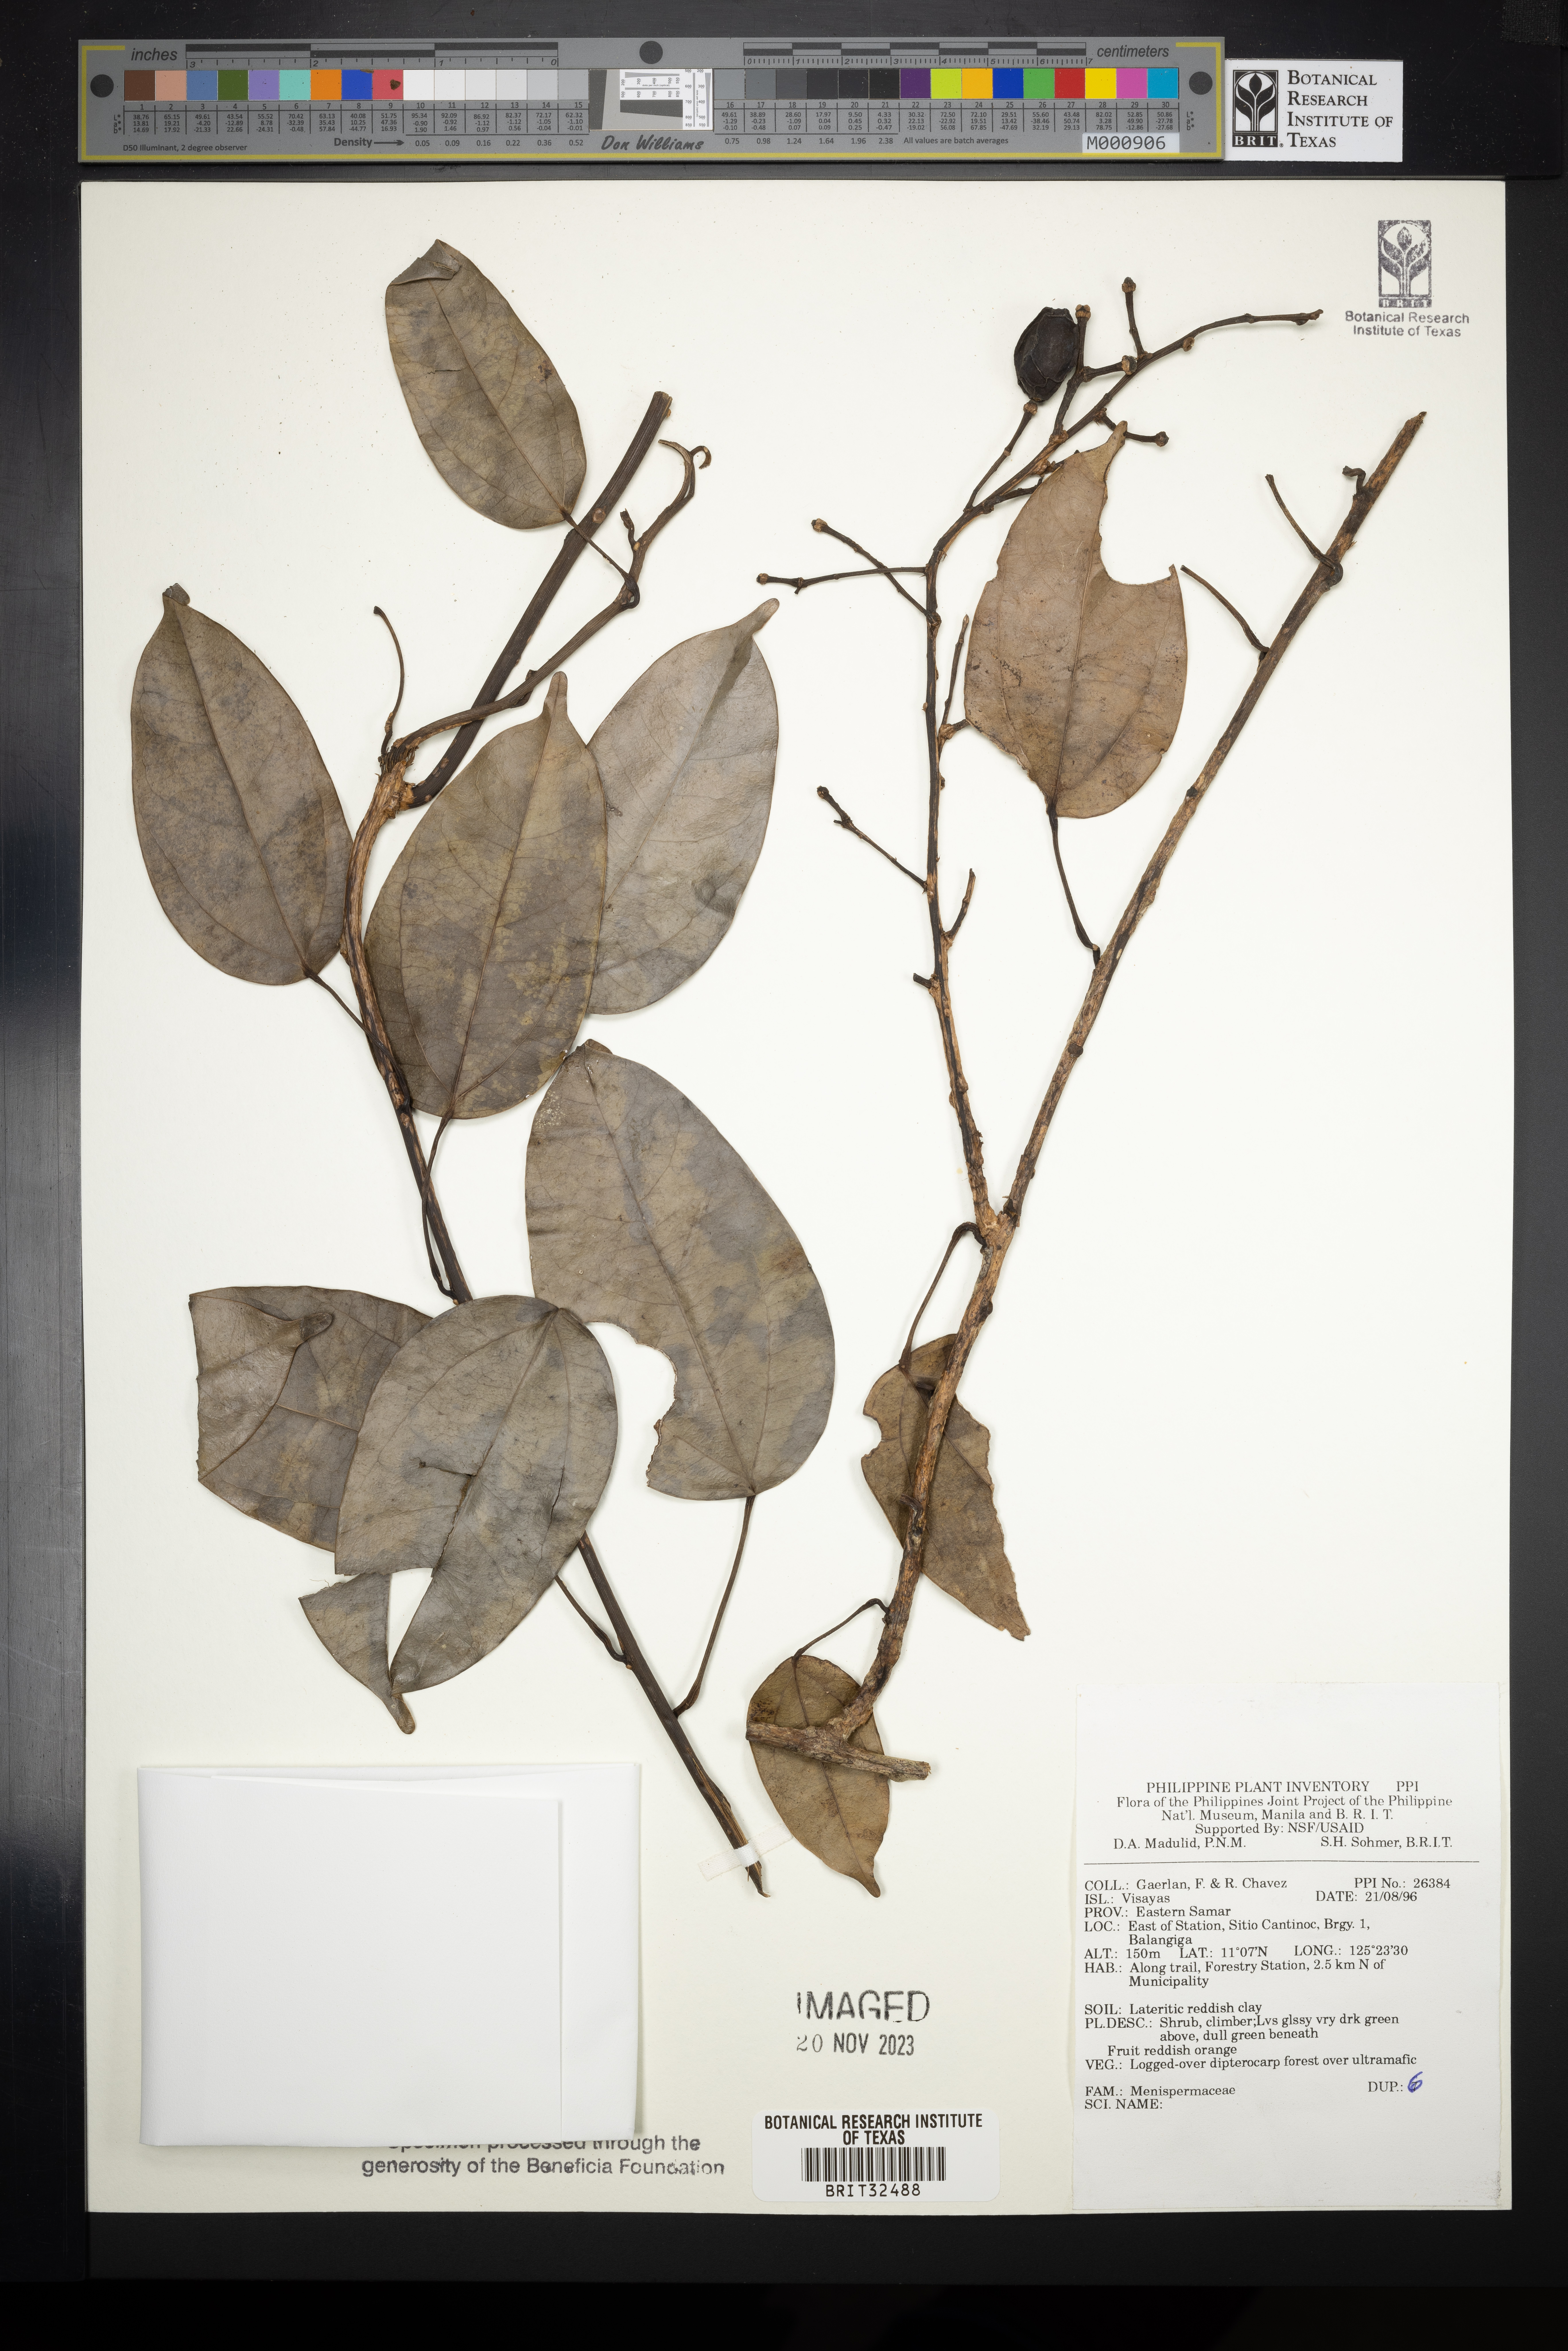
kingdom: Plantae
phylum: Tracheophyta
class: Magnoliopsida
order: Ranunculales
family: Menispermaceae
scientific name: Menispermaceae
